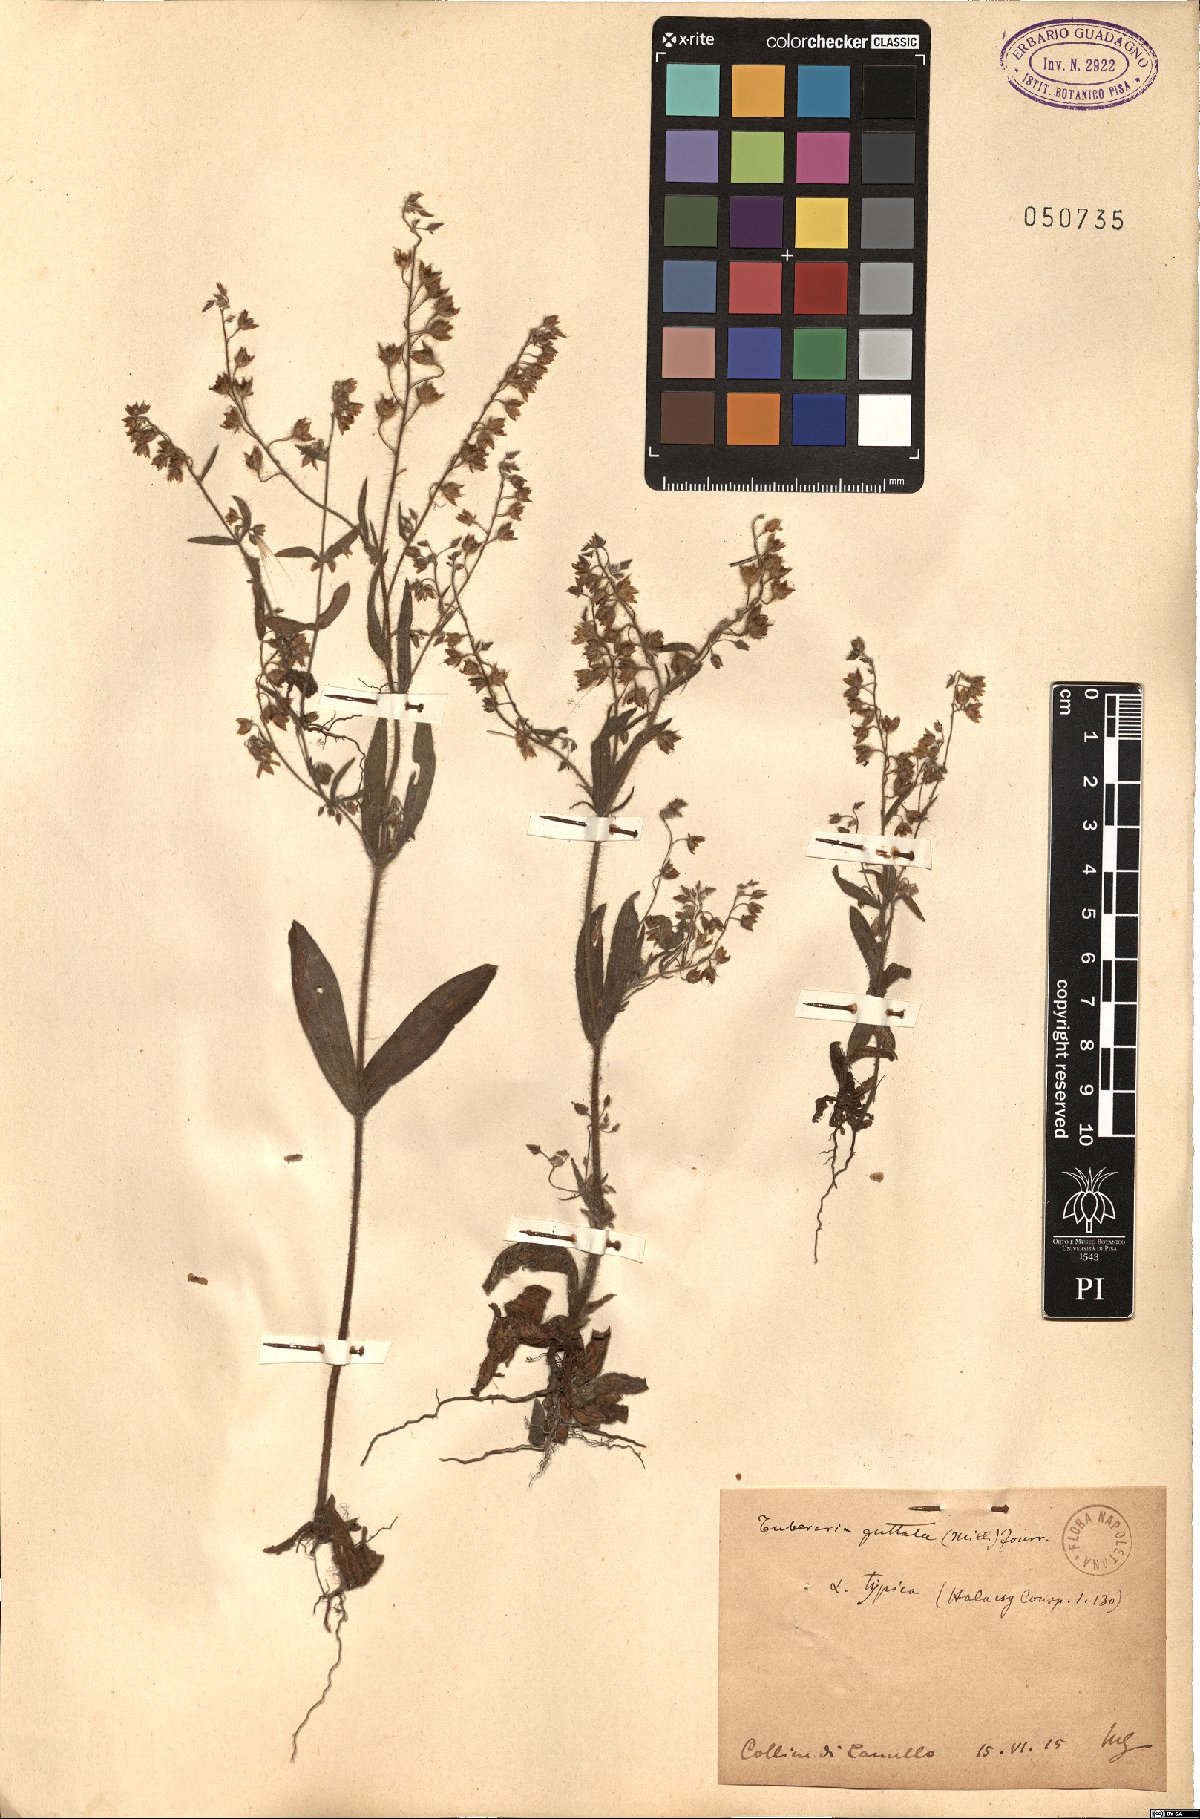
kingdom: Plantae
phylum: Tracheophyta
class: Magnoliopsida
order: Malvales
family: Cistaceae
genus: Tuberaria
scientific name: Tuberaria guttata
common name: Spotted rock-rose
